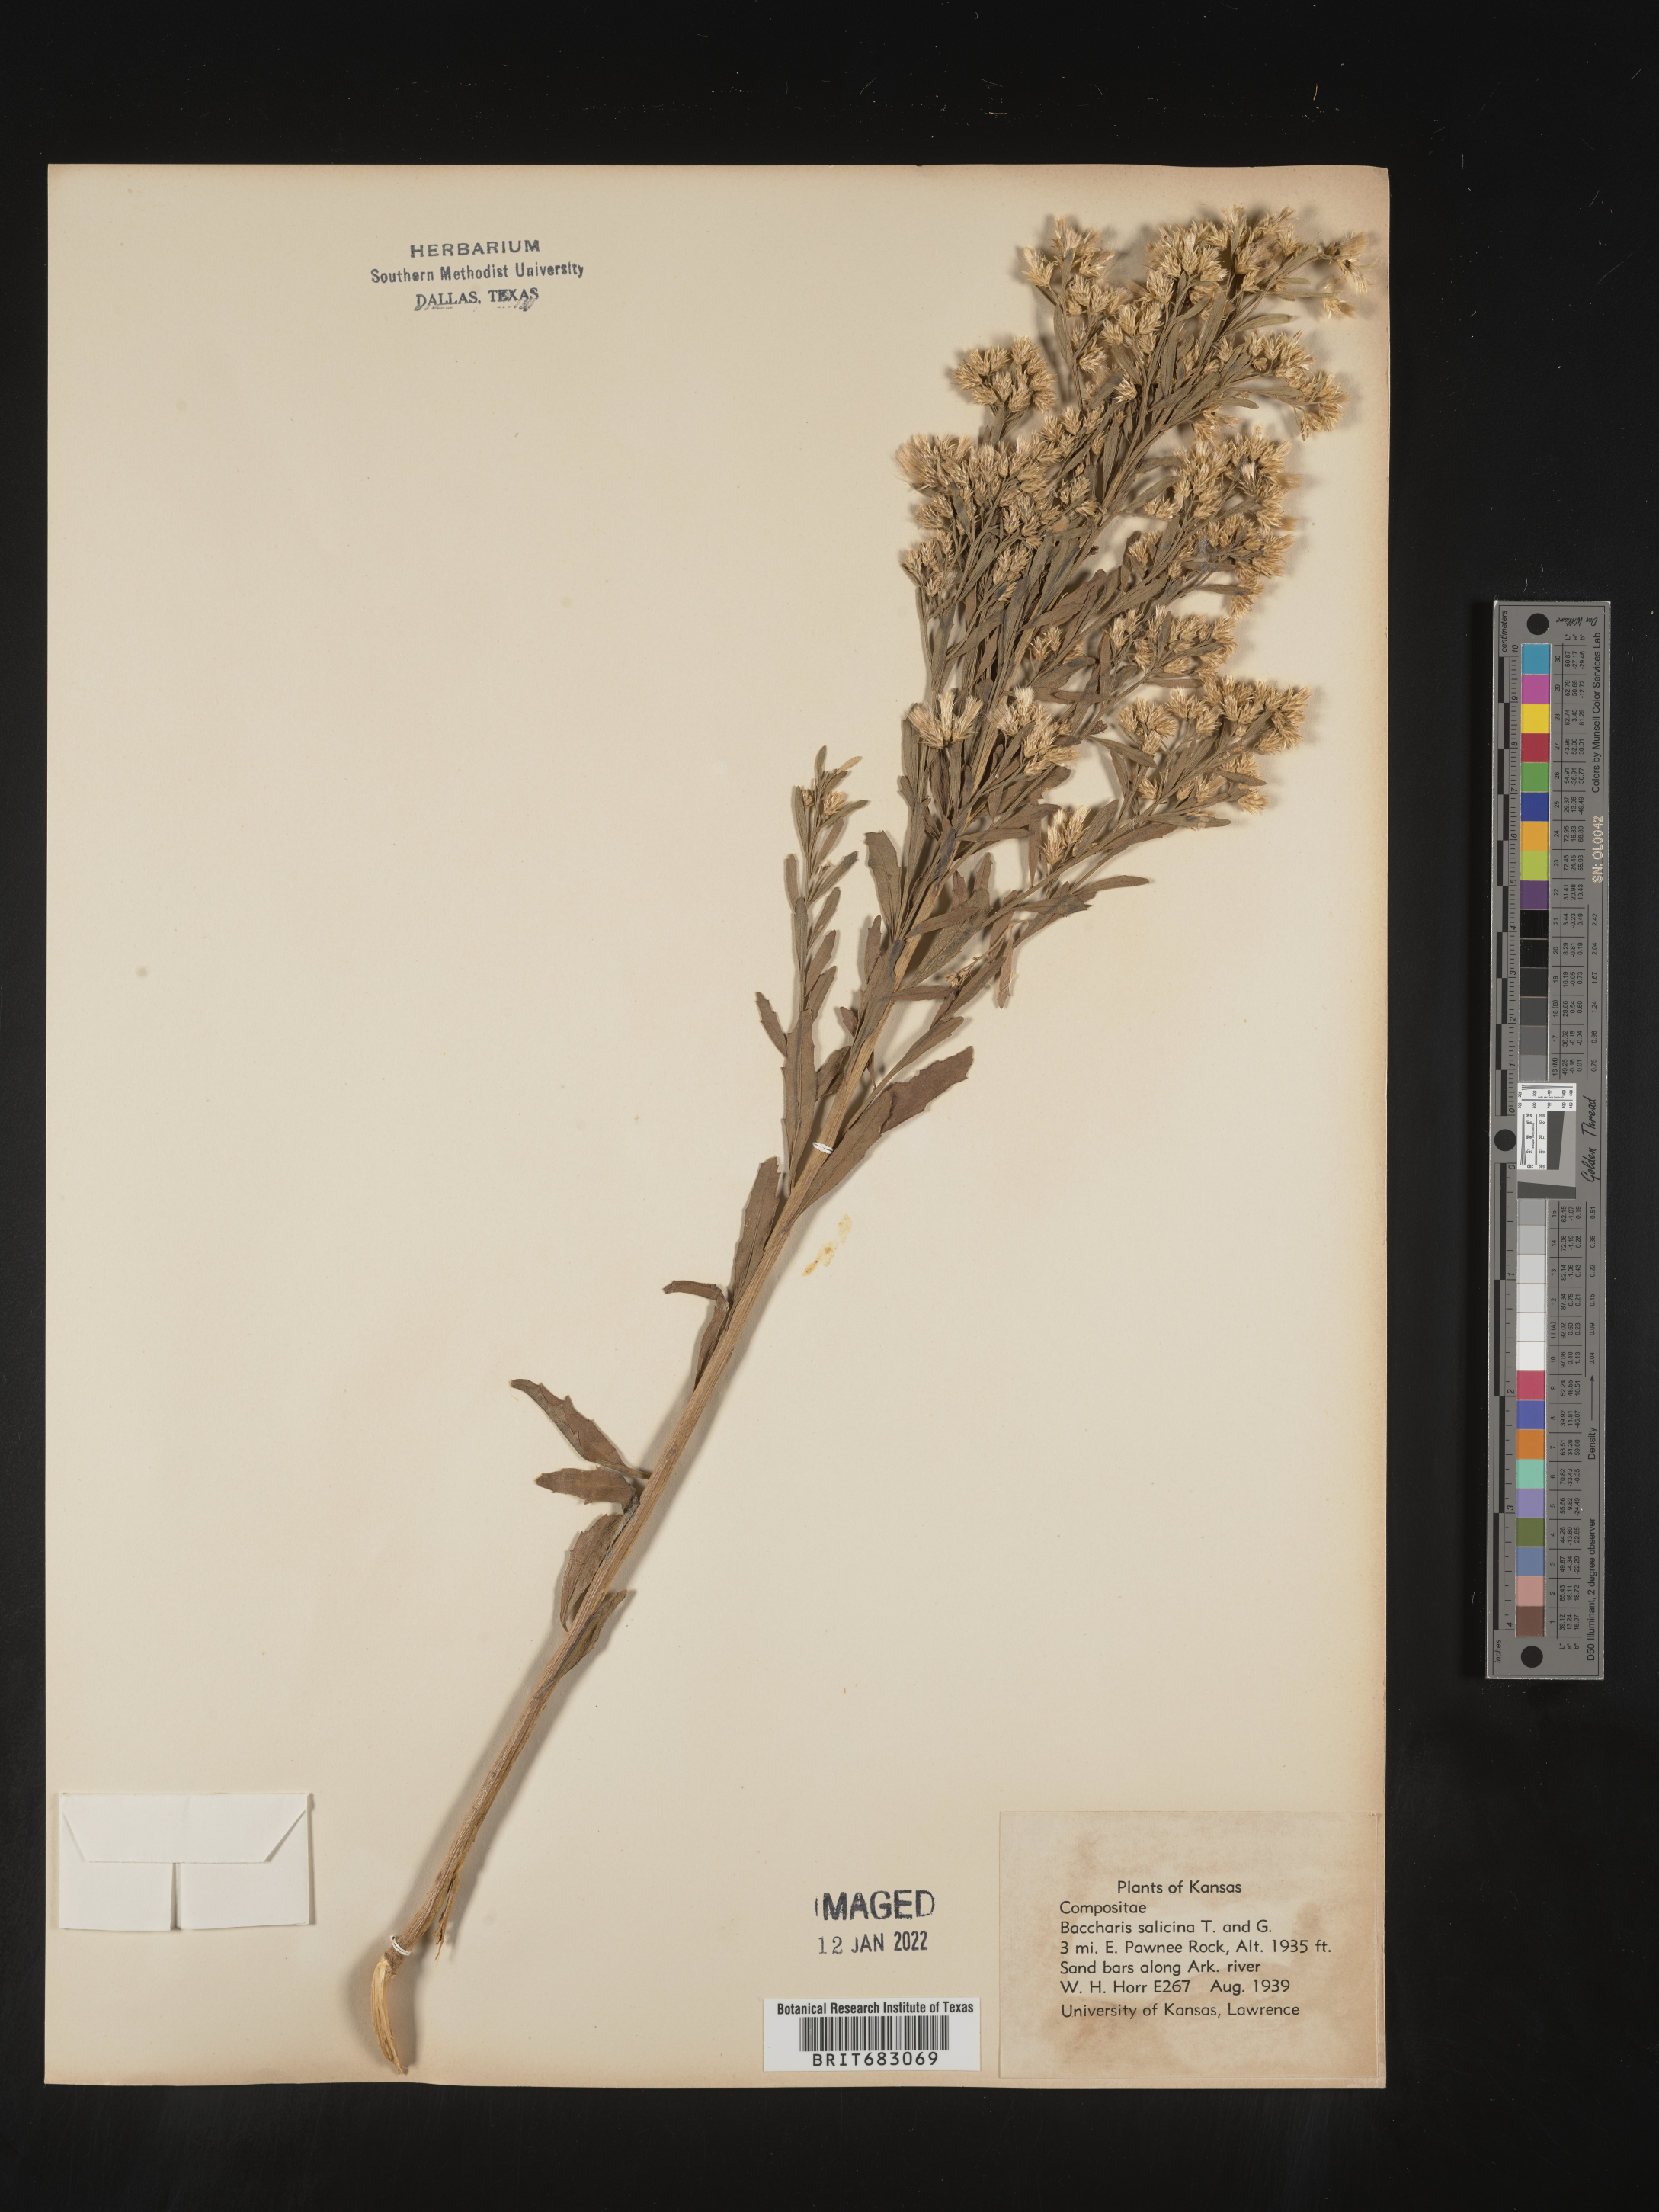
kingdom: Plantae
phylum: Tracheophyta
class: Magnoliopsida
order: Asterales
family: Asteraceae
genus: Baccharis
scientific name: Baccharis salicina
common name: Willow baccharis
